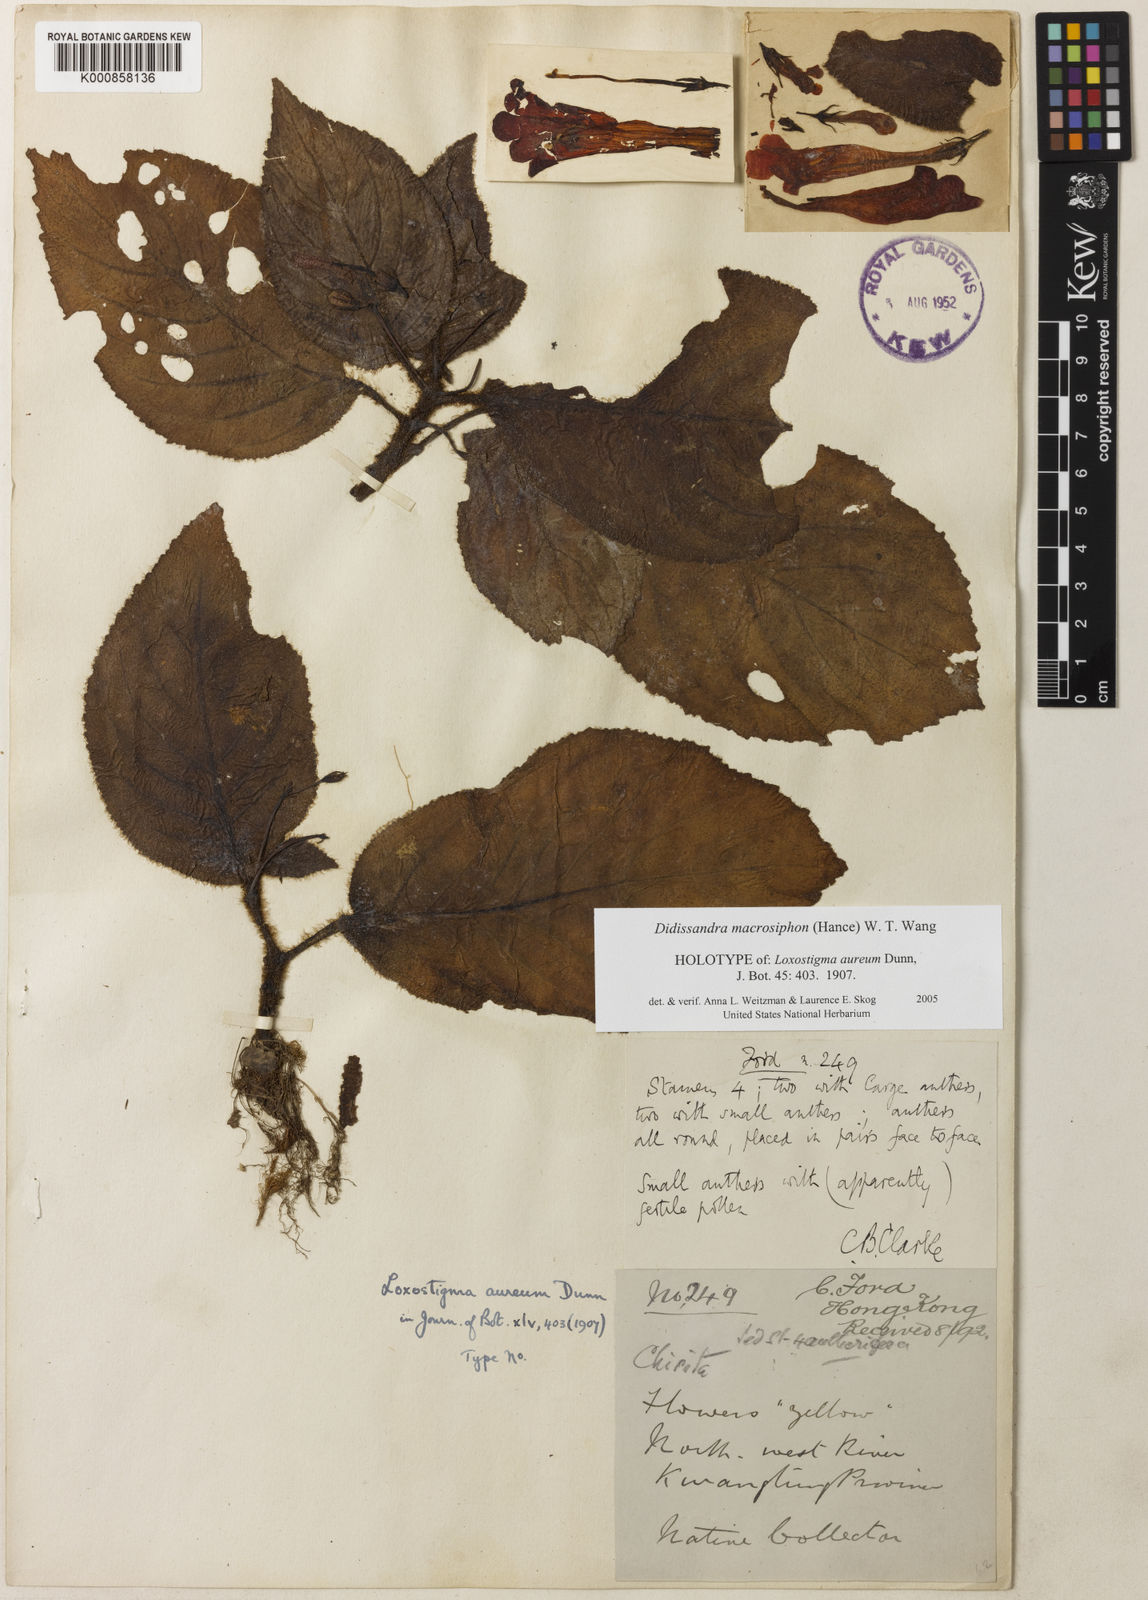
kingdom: Plantae
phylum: Tracheophyta
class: Magnoliopsida
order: Lamiales
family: Gesneriaceae
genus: Raphiocarpus
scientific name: Raphiocarpus macrosiphon
